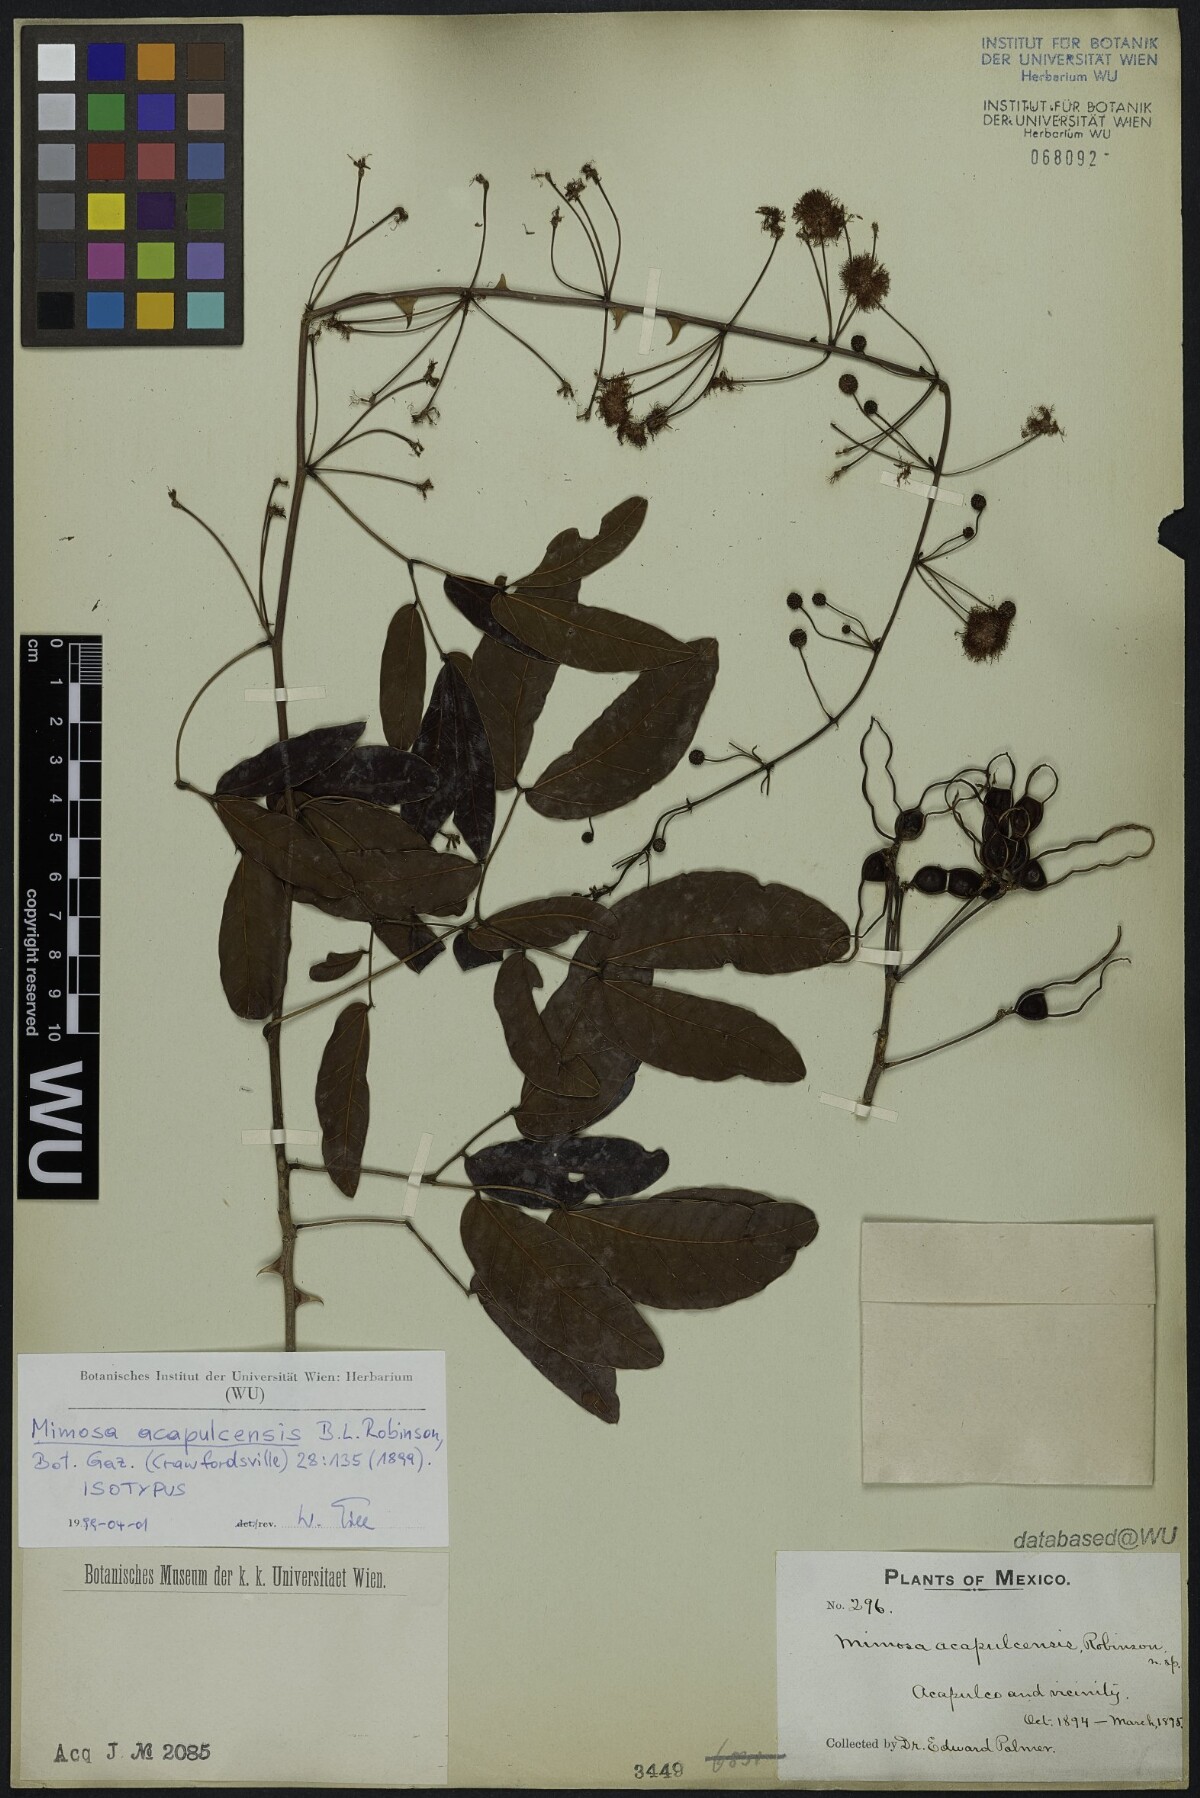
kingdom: Plantae
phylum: Tracheophyta
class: Magnoliopsida
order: Fabales
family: Fabaceae
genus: Mimosa
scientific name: Mimosa acapulcensis
